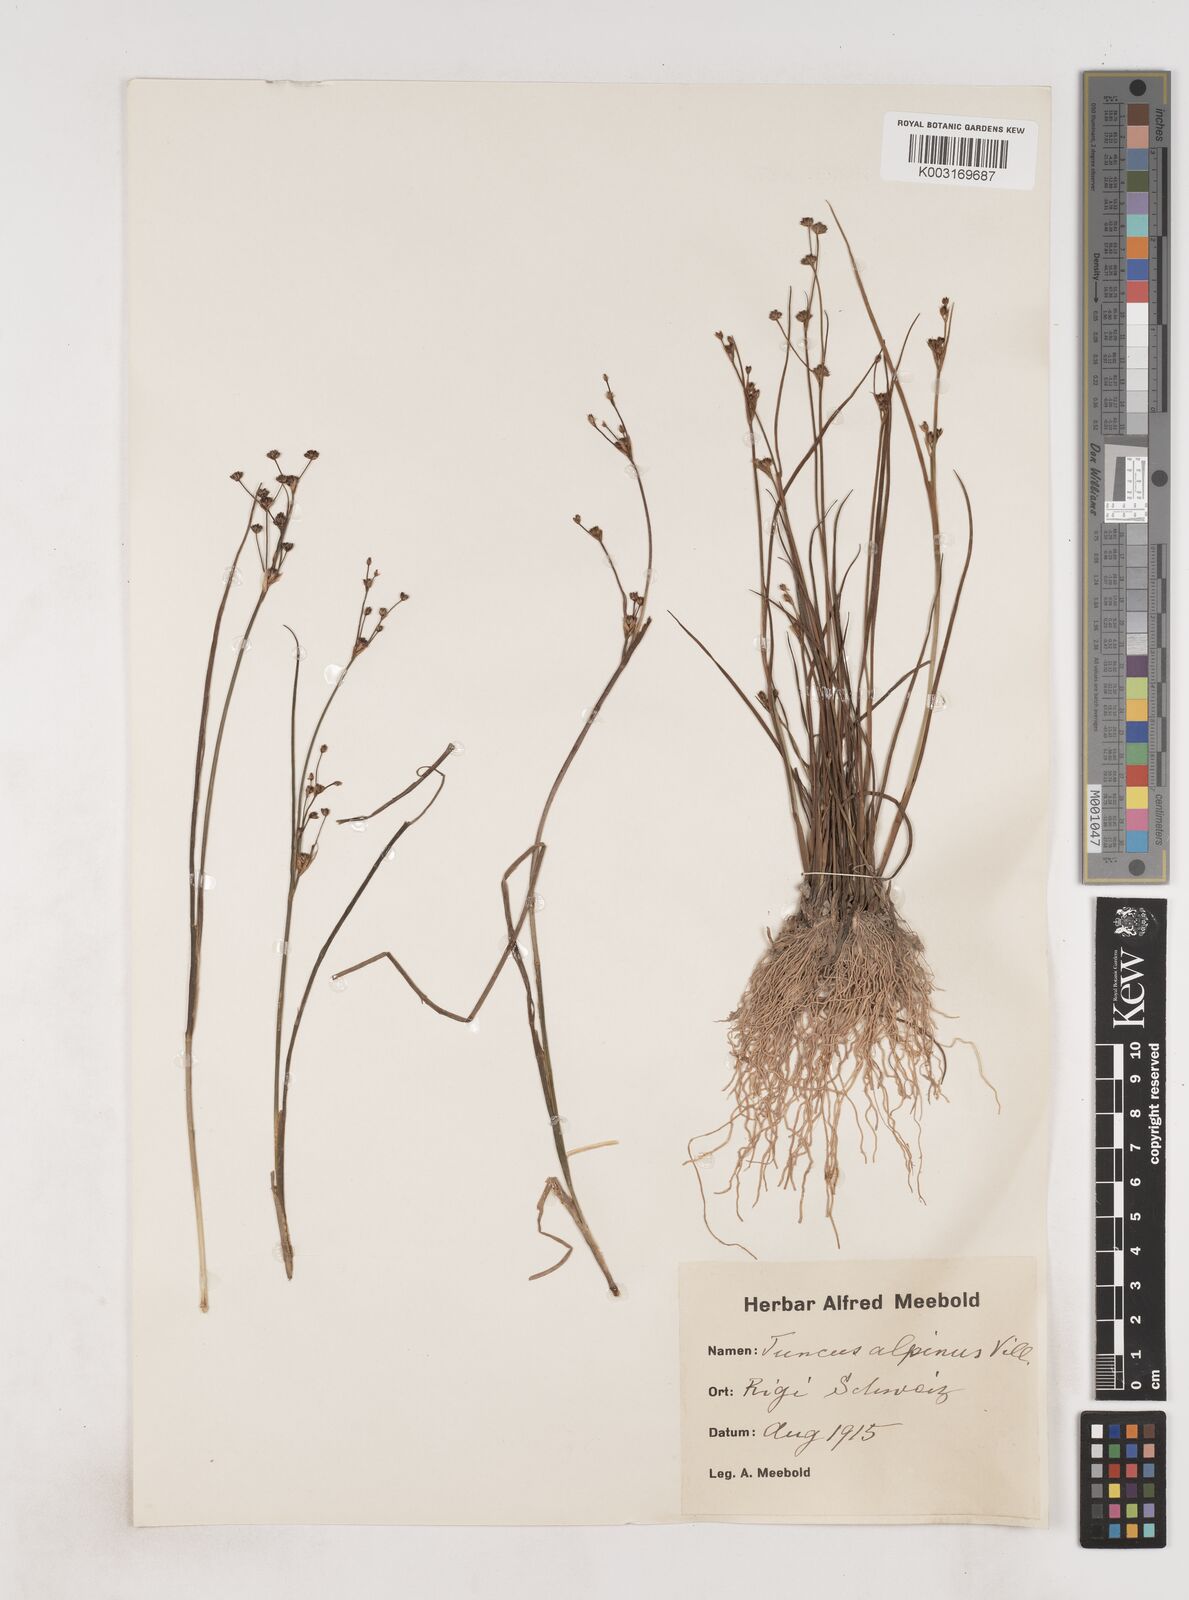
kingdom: Plantae
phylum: Tracheophyta
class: Liliopsida
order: Poales
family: Juncaceae
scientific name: Juncaceae
